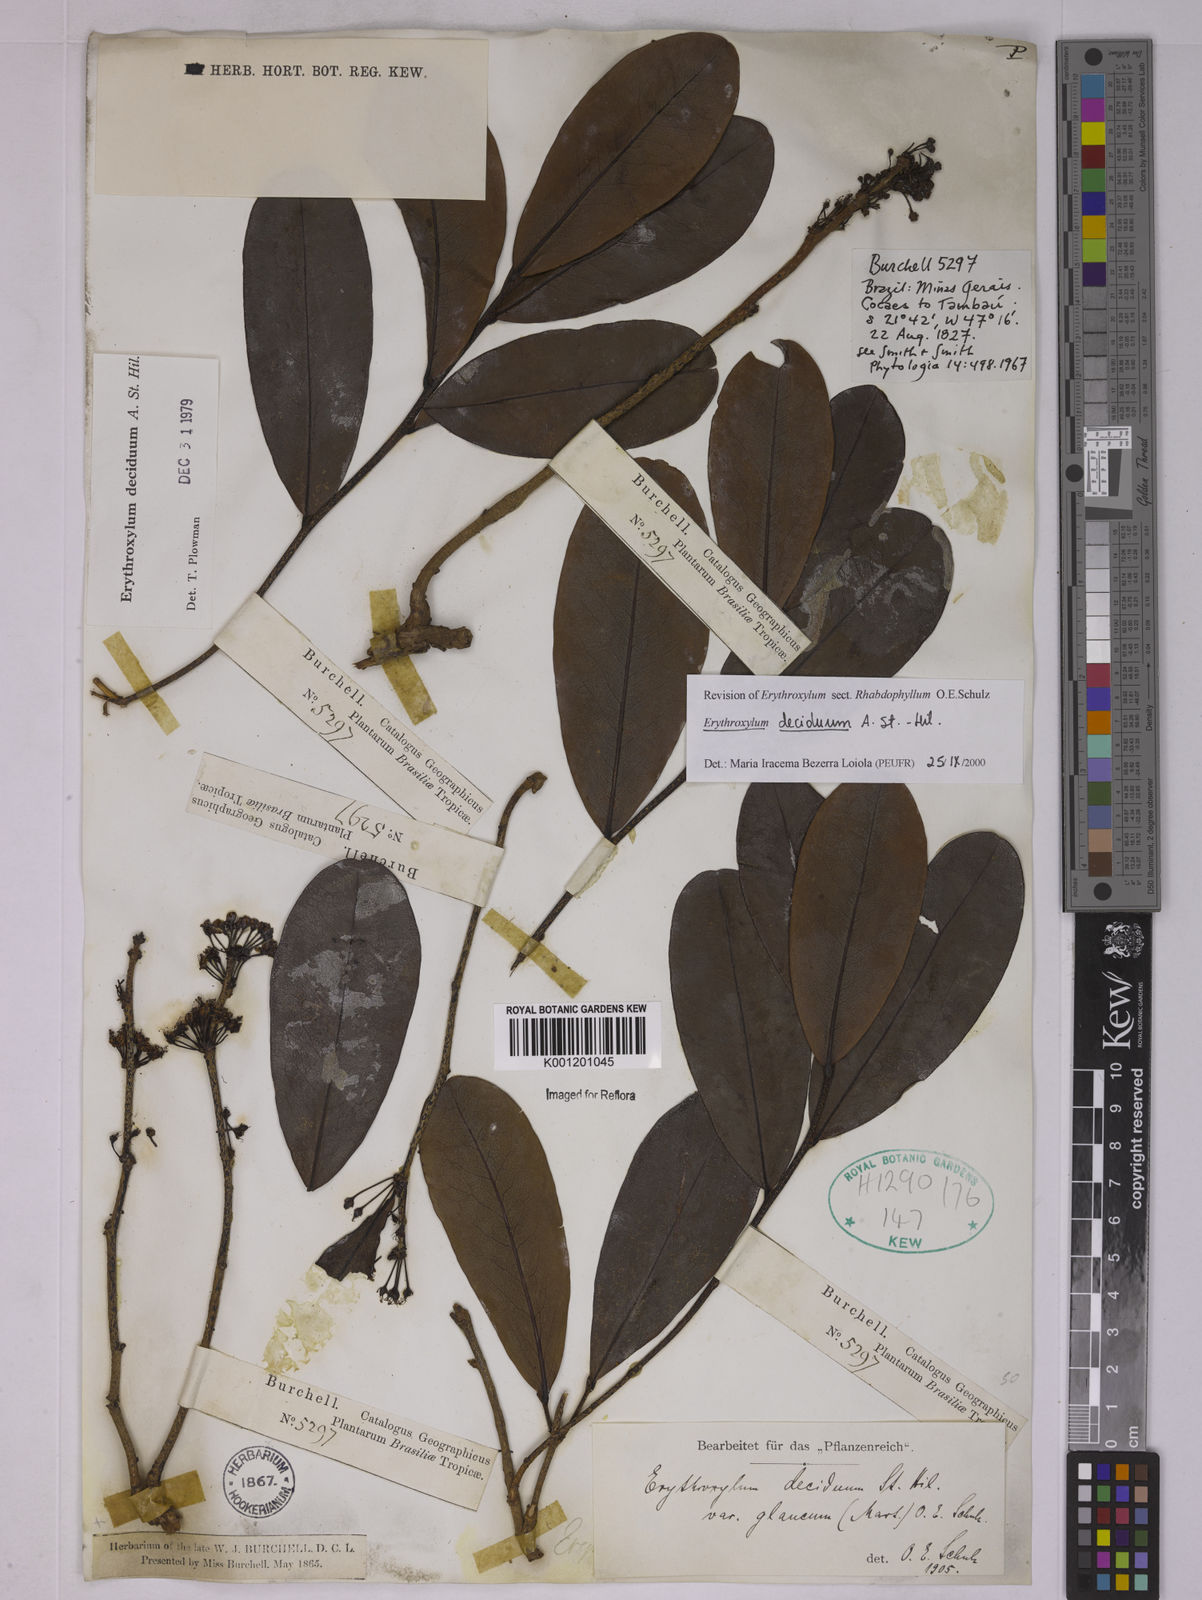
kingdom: Plantae
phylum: Tracheophyta
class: Magnoliopsida
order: Malpighiales
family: Erythroxylaceae
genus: Erythroxylum
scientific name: Erythroxylum deciduum
